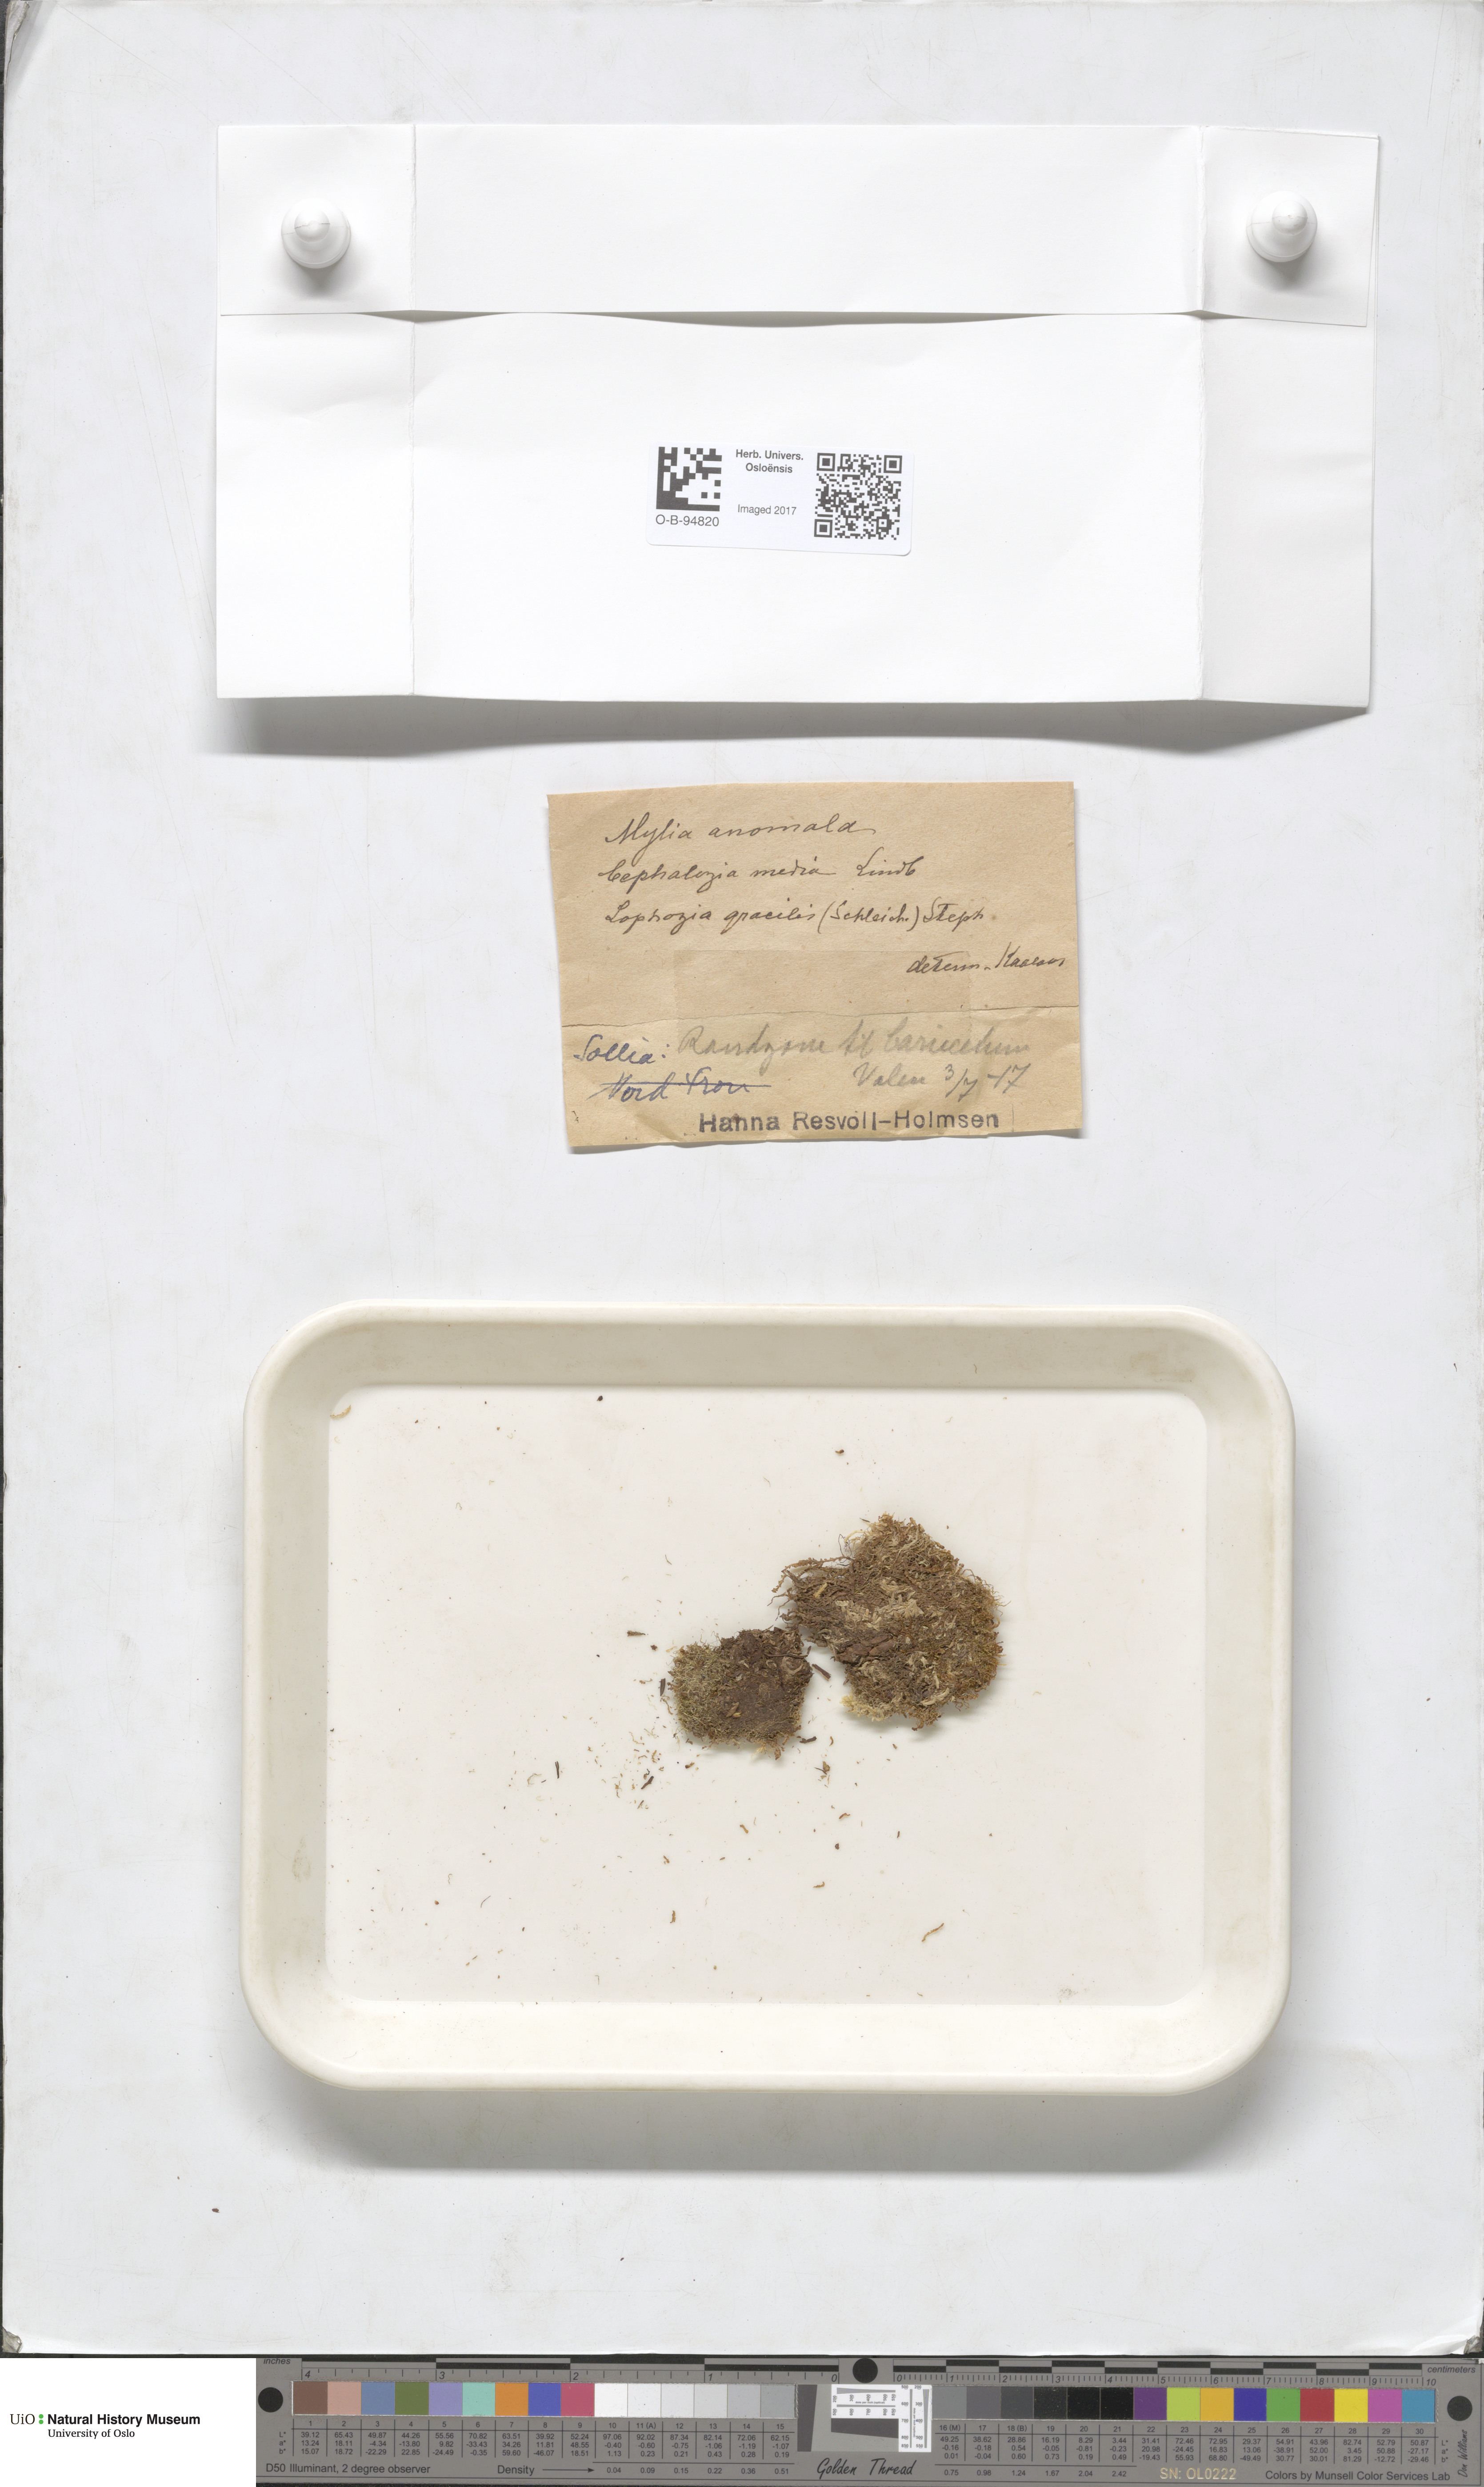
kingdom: Plantae
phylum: Marchantiophyta
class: Jungermanniopsida
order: Jungermanniales
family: Myliaceae
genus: Mylia
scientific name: Mylia anomala
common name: Anomalous flapwort
